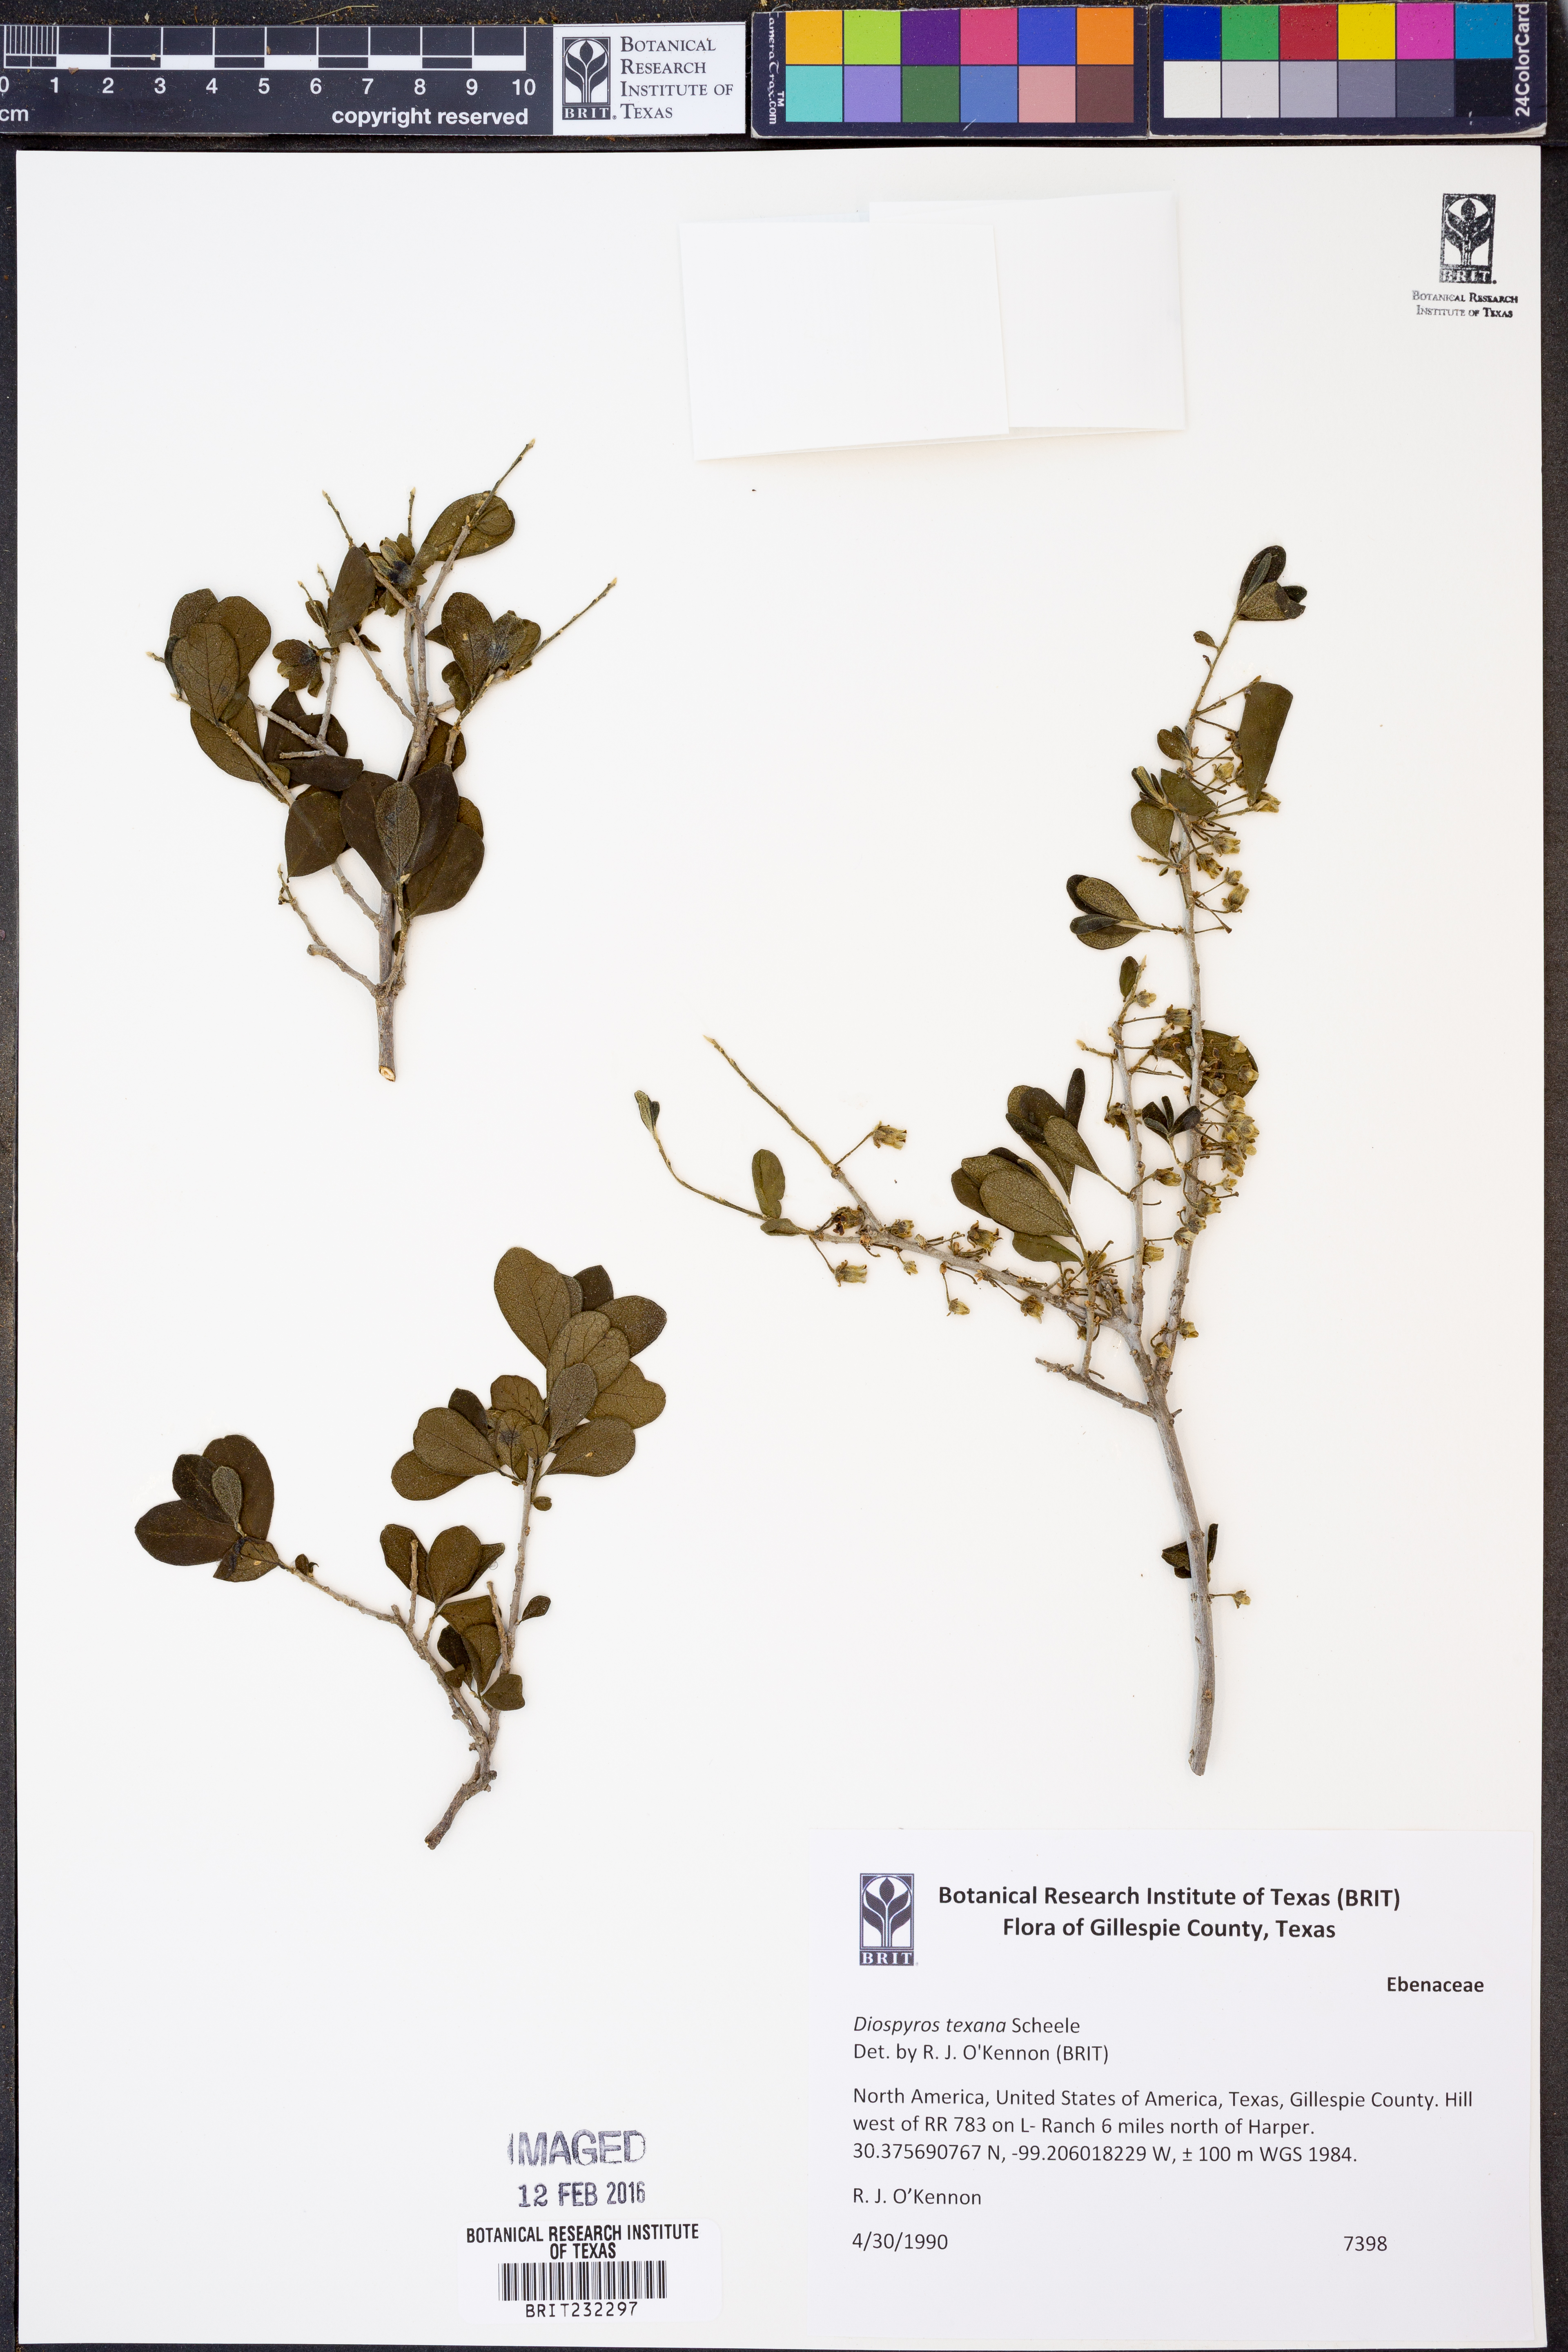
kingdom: Plantae
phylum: Tracheophyta
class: Magnoliopsida
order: Ericales
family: Ebenaceae
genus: Diospyros
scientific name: Diospyros texana
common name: Texas persimmon
